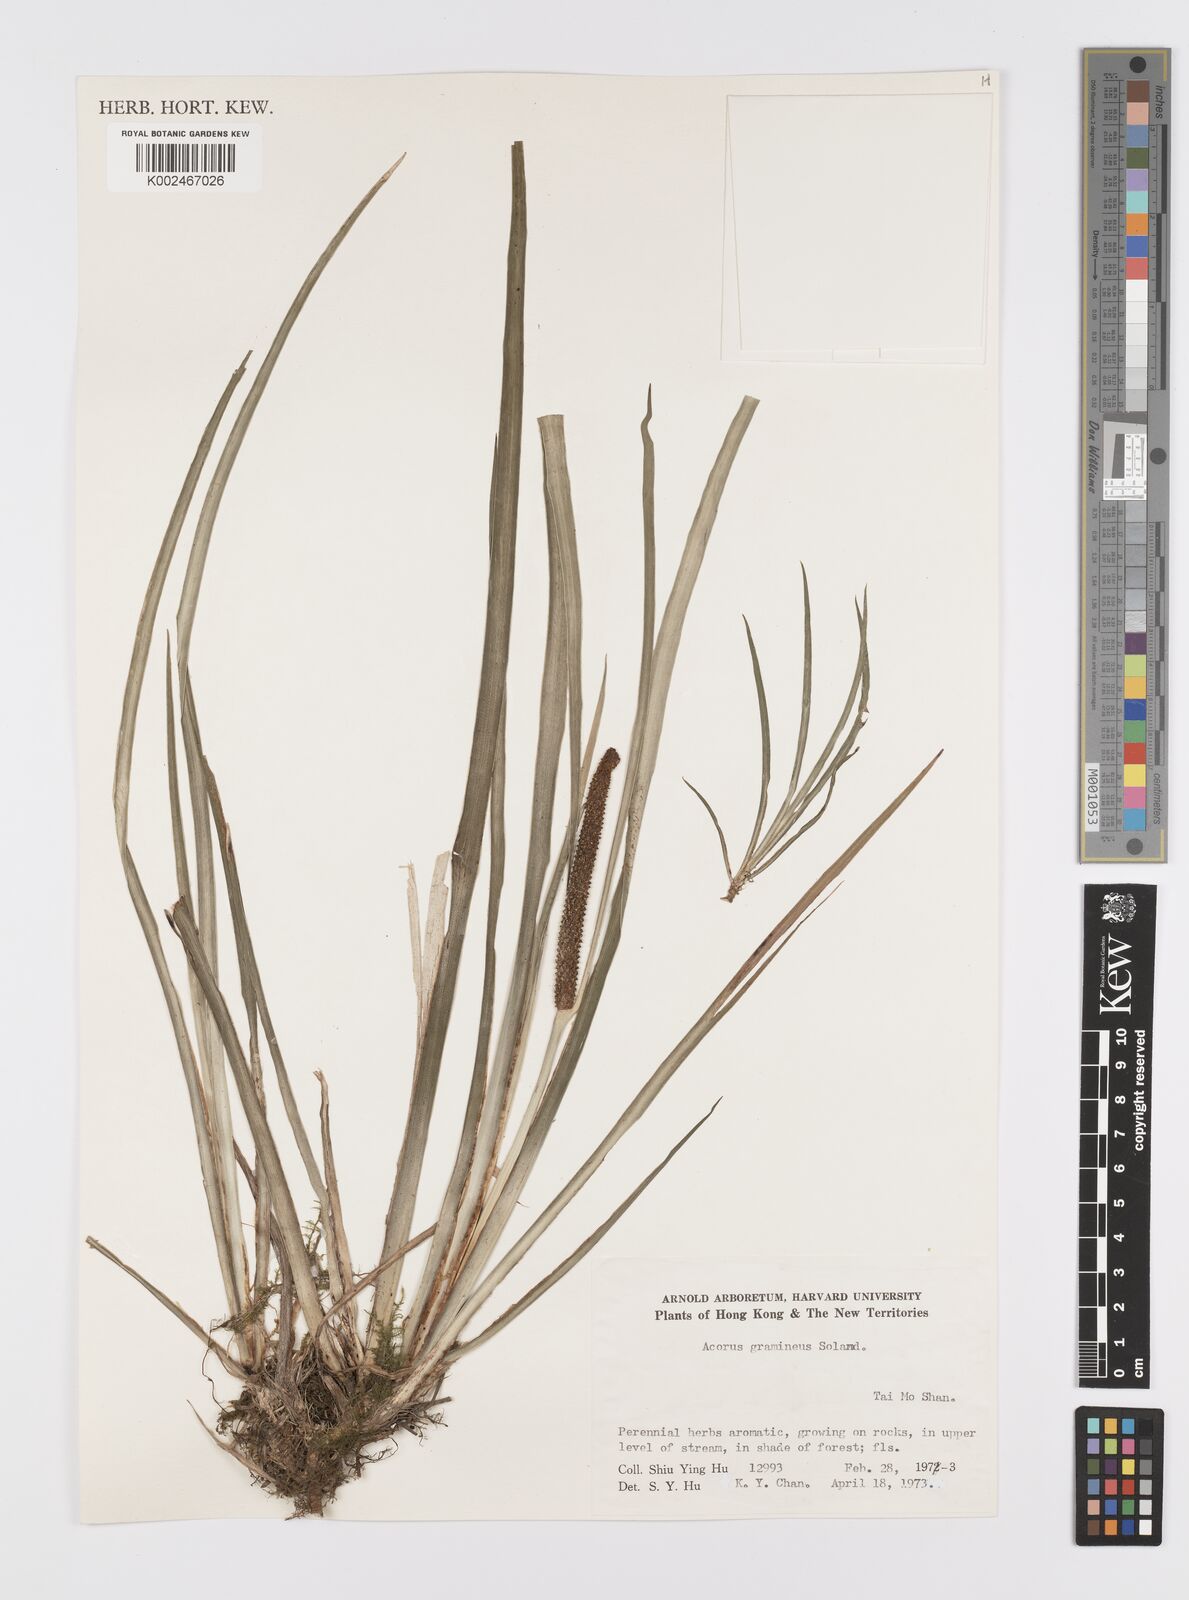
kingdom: Plantae
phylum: Tracheophyta
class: Liliopsida
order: Acorales
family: Acoraceae
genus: Acorus
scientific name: Acorus gramineus
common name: Slender sweet-flag
